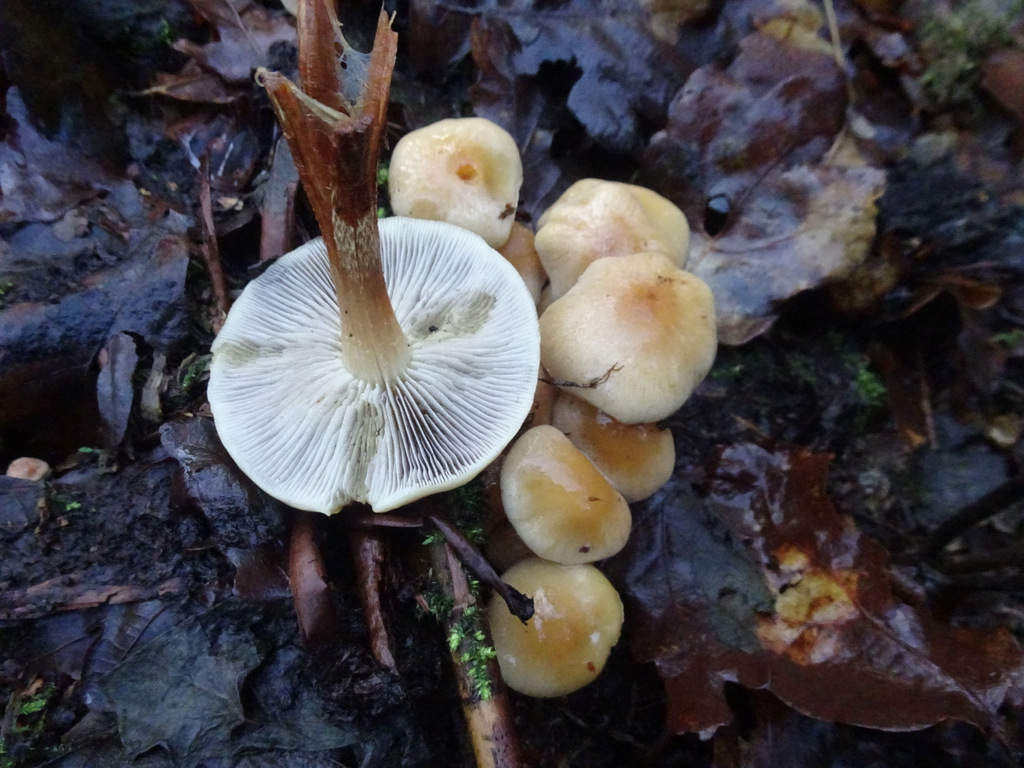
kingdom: Fungi
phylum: Basidiomycota
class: Agaricomycetes
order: Agaricales
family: Strophariaceae
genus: Hypholoma
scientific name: Hypholoma capnoides
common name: gran-svovlhat
